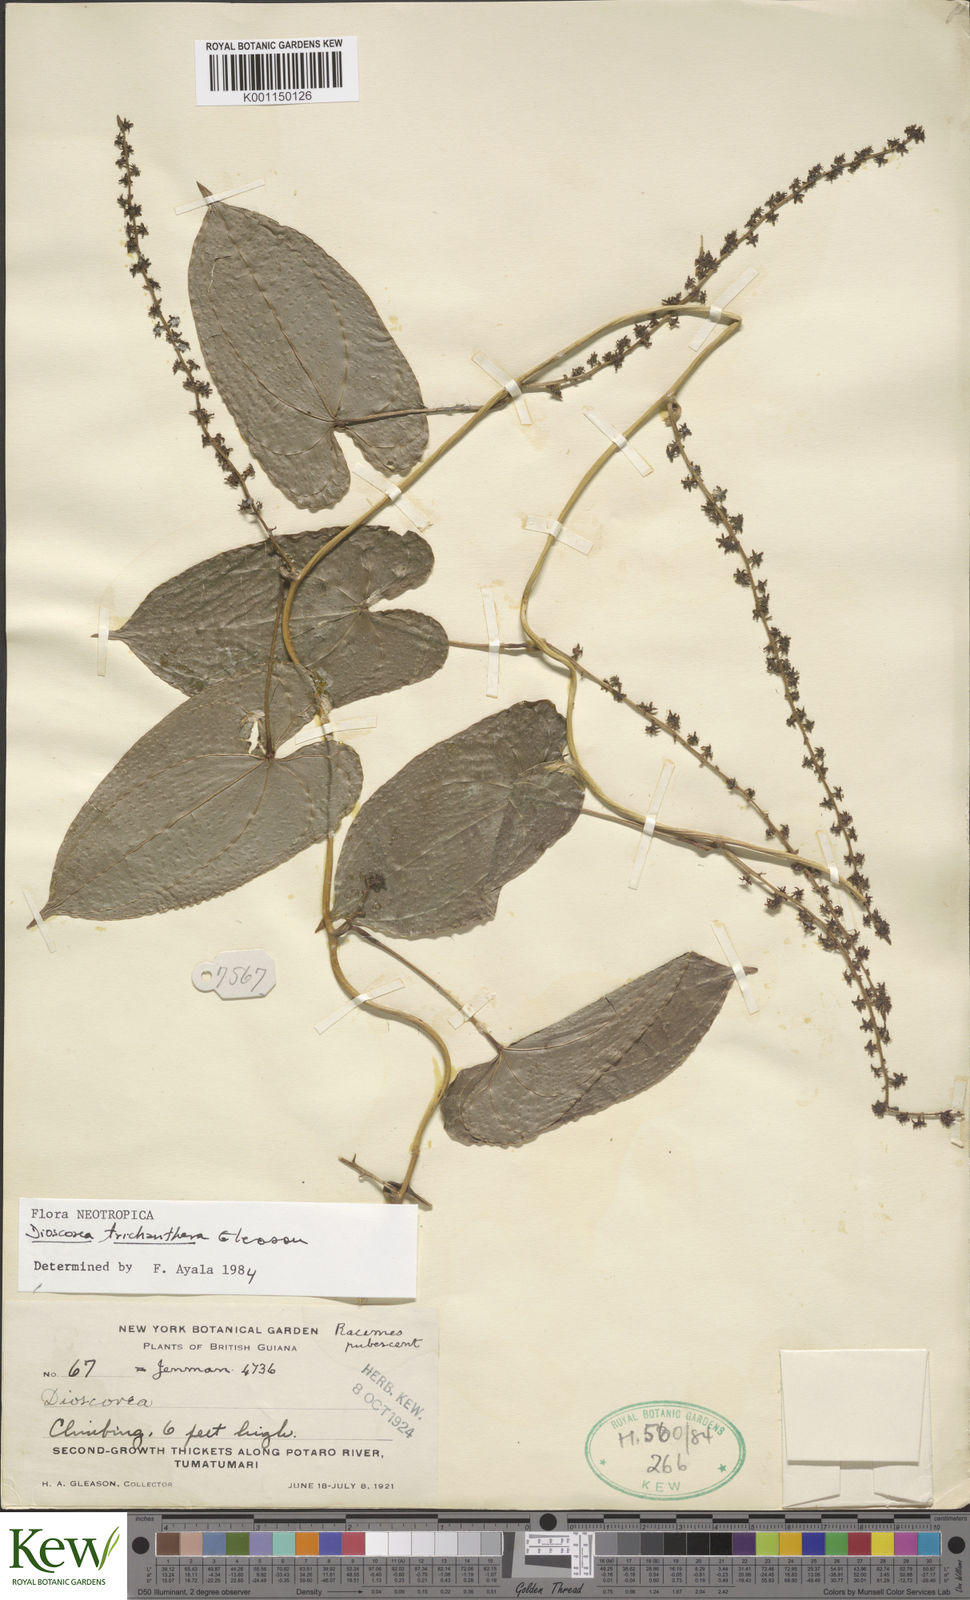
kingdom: Plantae
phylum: Tracheophyta
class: Liliopsida
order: Dioscoreales
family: Dioscoreaceae
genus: Dioscorea
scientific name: Dioscorea trichanthera
